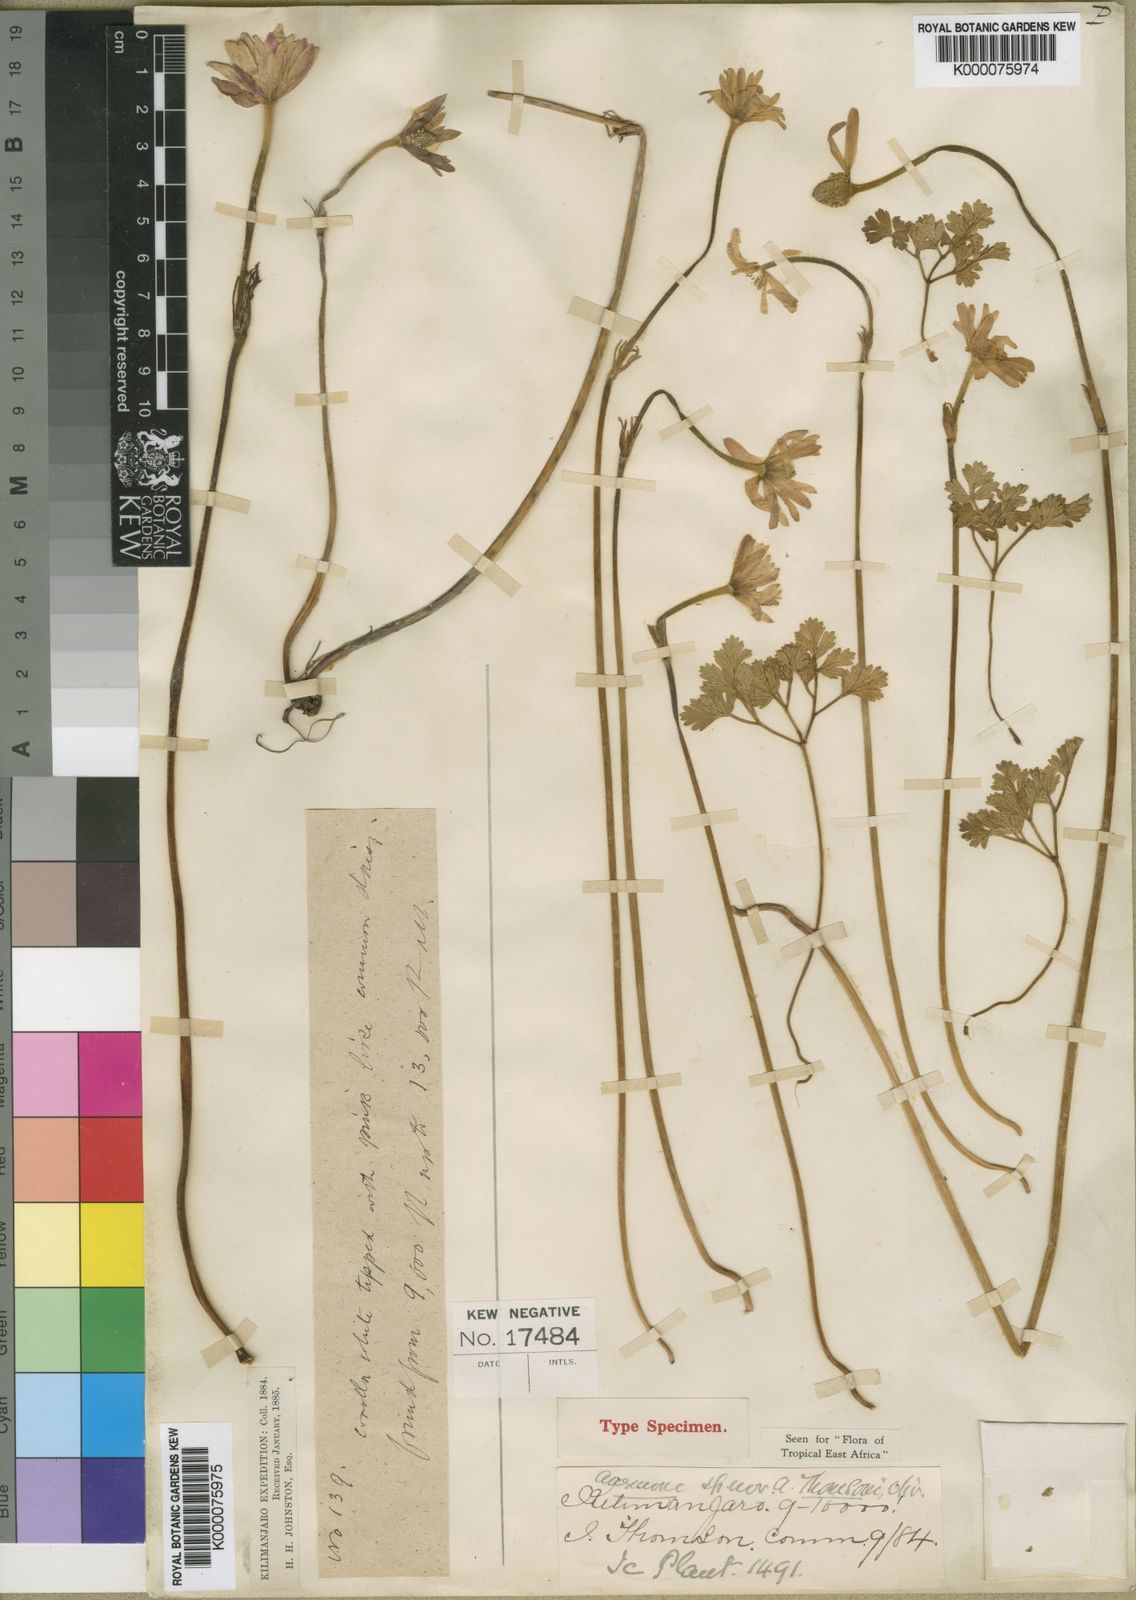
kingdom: Plantae
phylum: Tracheophyta
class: Magnoliopsida
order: Ranunculales
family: Ranunculaceae
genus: Anemone
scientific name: Anemone thomsonii
